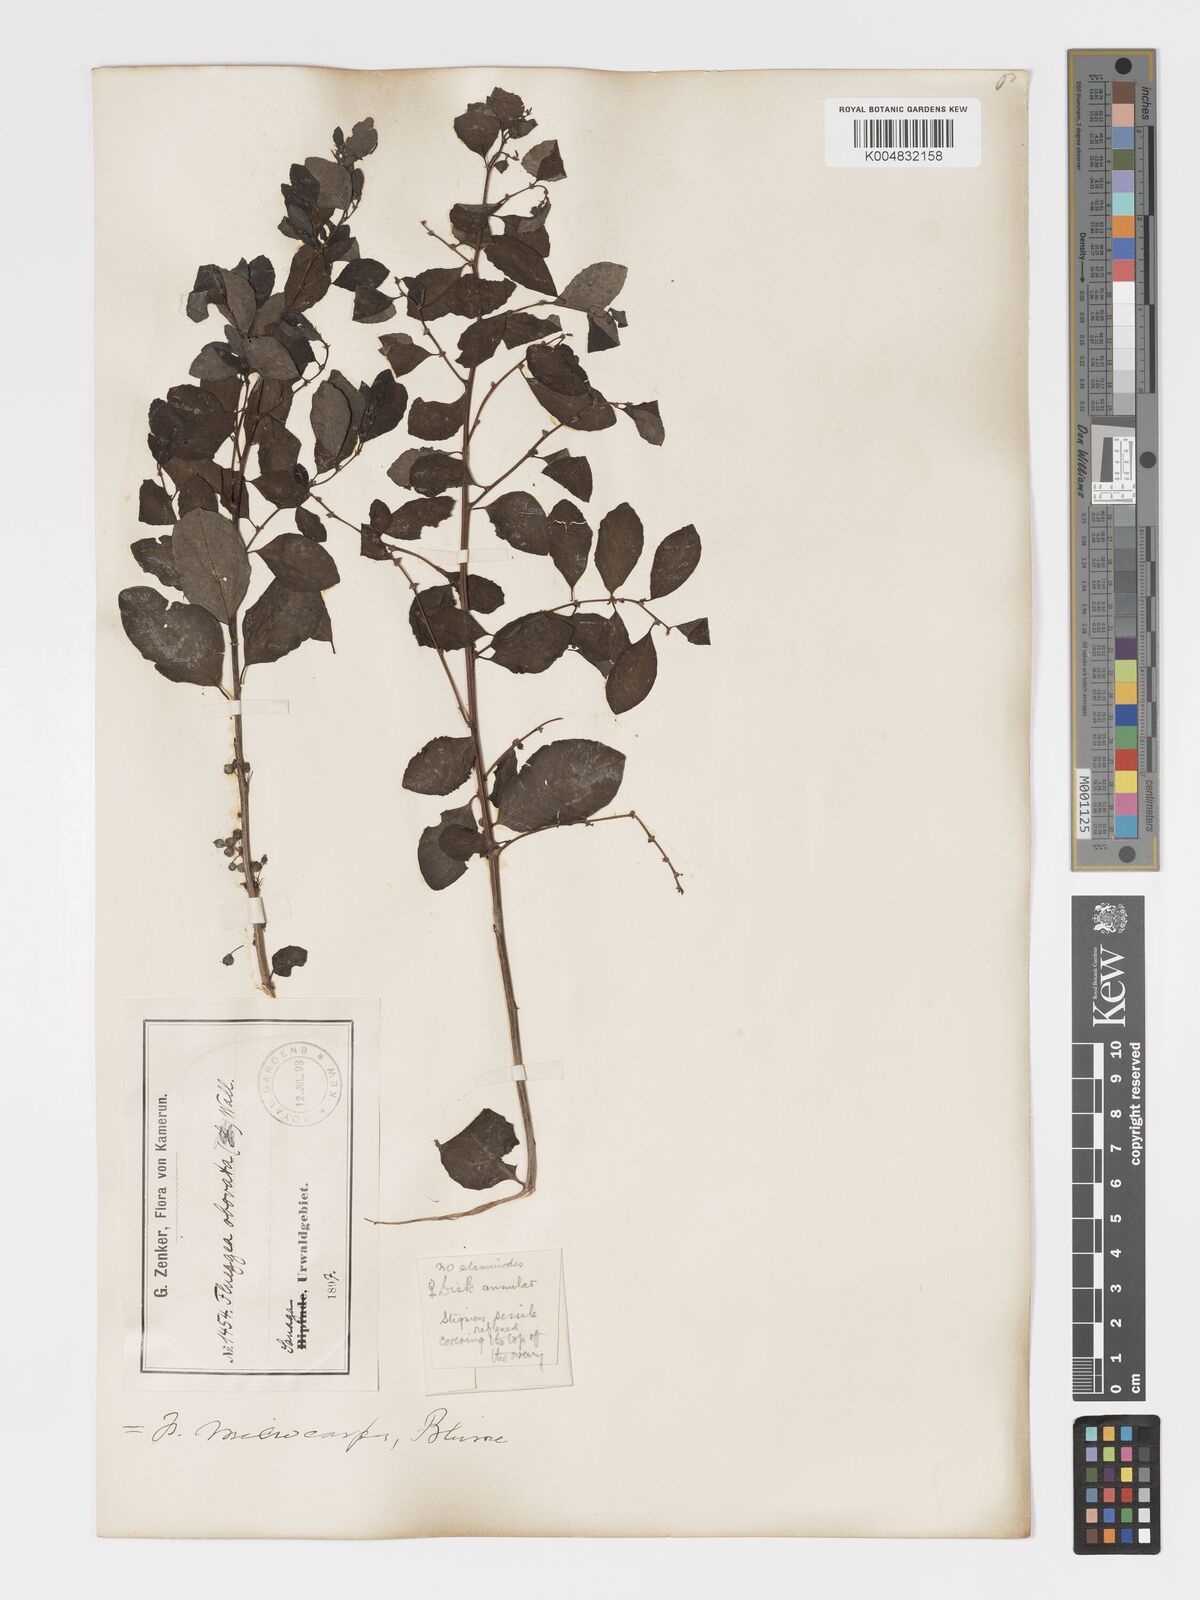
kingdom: Plantae
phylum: Tracheophyta
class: Magnoliopsida
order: Malpighiales
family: Phyllanthaceae
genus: Flueggea
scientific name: Flueggea virosa
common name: Common bushweed
